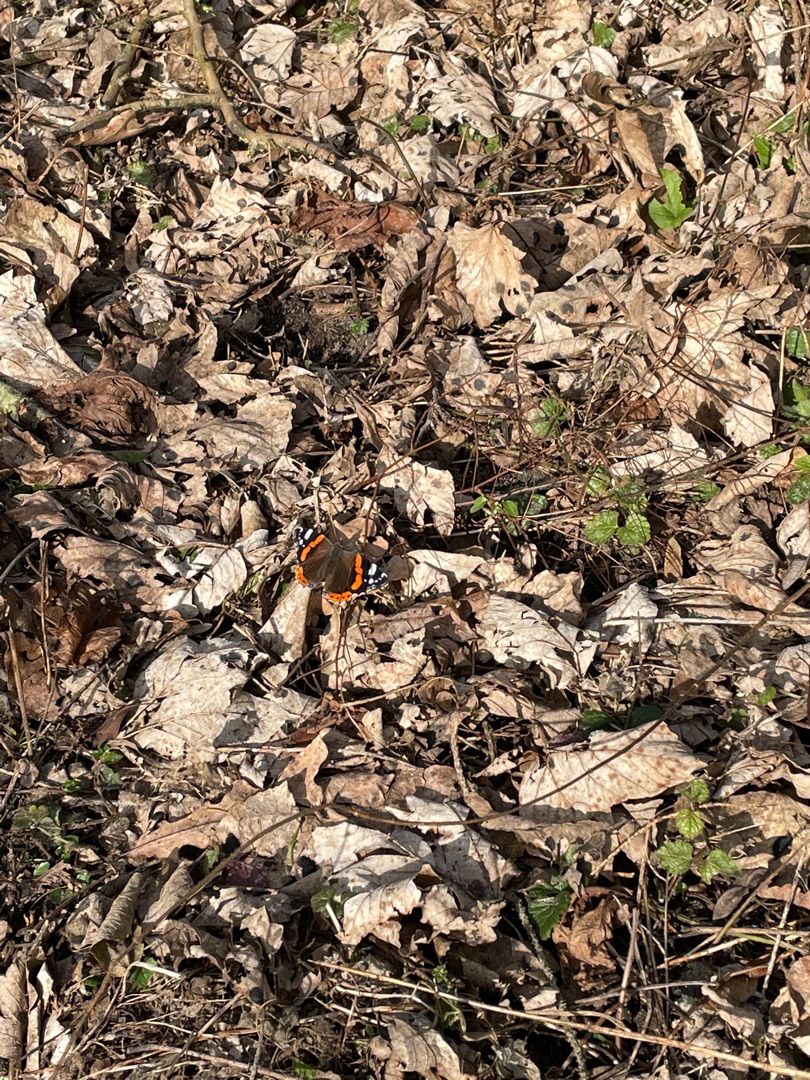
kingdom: Animalia
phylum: Arthropoda
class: Insecta
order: Lepidoptera
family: Nymphalidae
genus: Vanessa
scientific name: Vanessa atalanta
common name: Admiral
